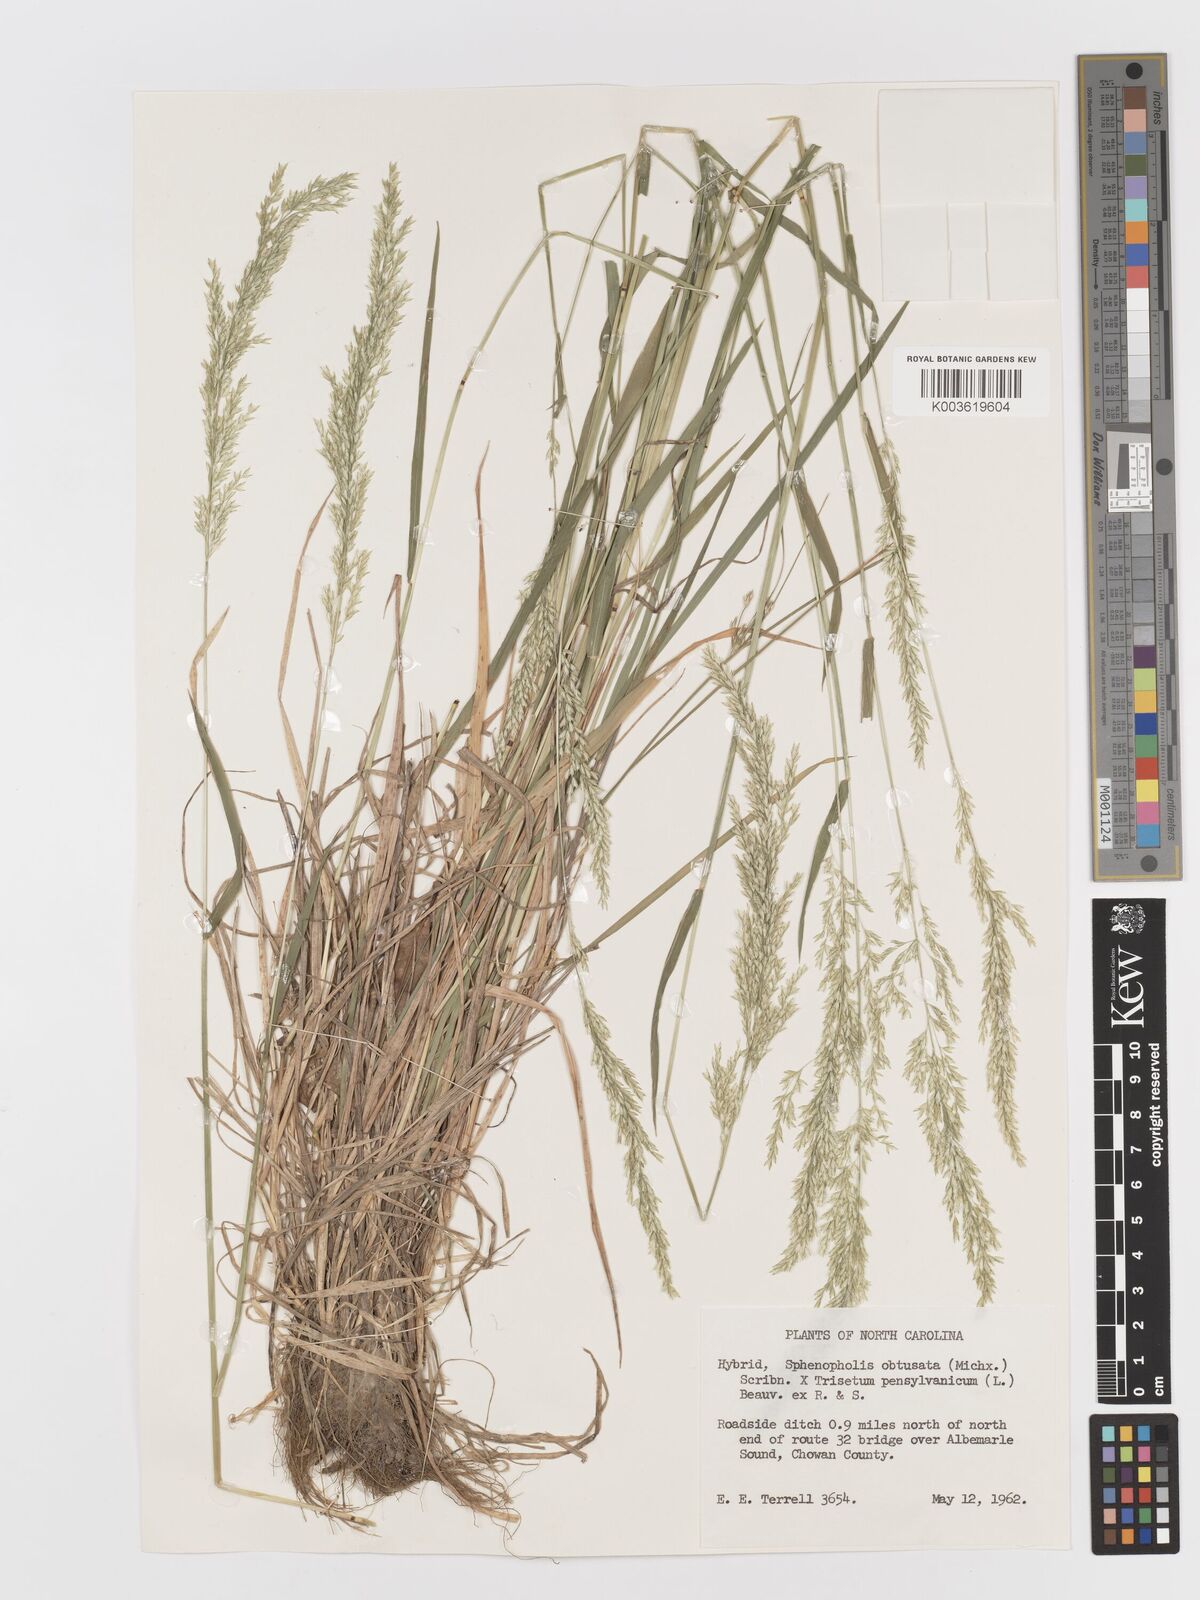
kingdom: Plantae
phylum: Tracheophyta
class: Liliopsida
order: Poales
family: Poaceae
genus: Sphenopholis
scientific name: Sphenopholis obtusata
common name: Prairie grass
